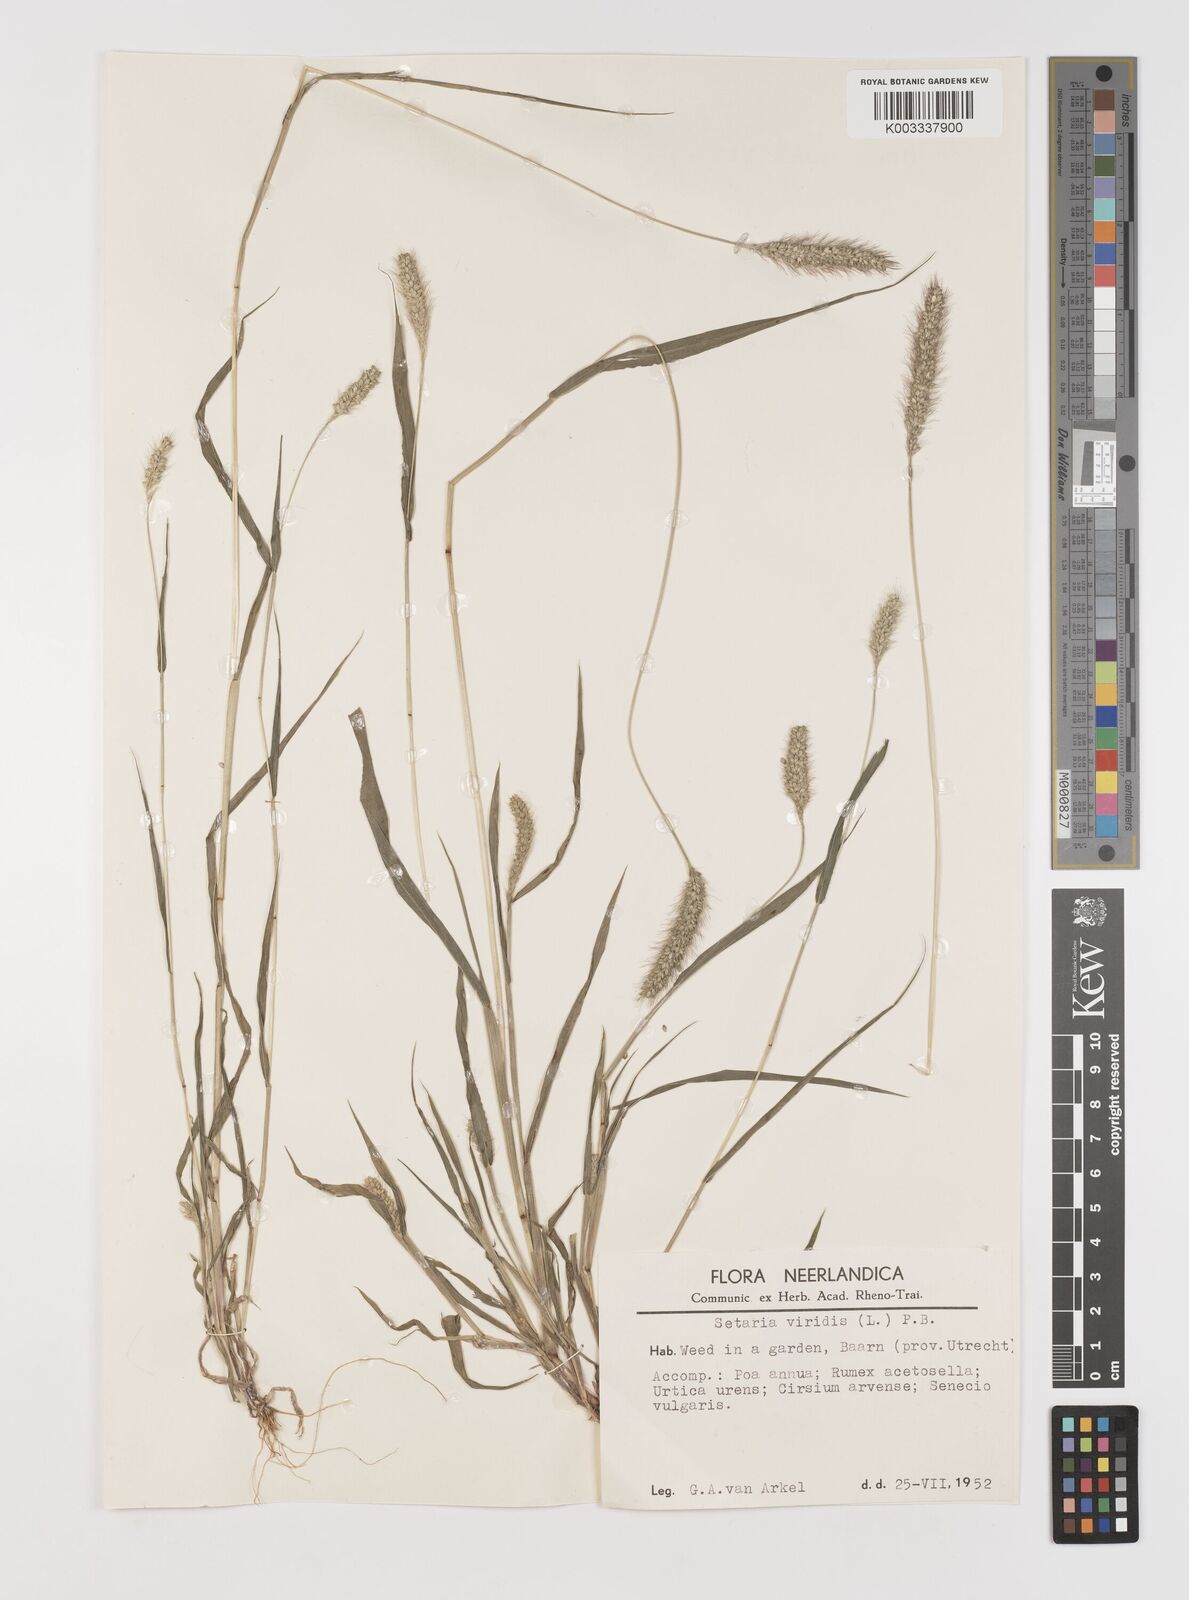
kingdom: Plantae
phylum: Tracheophyta
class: Liliopsida
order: Poales
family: Poaceae
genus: Setaria
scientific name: Setaria viridis
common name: Green bristlegrass
